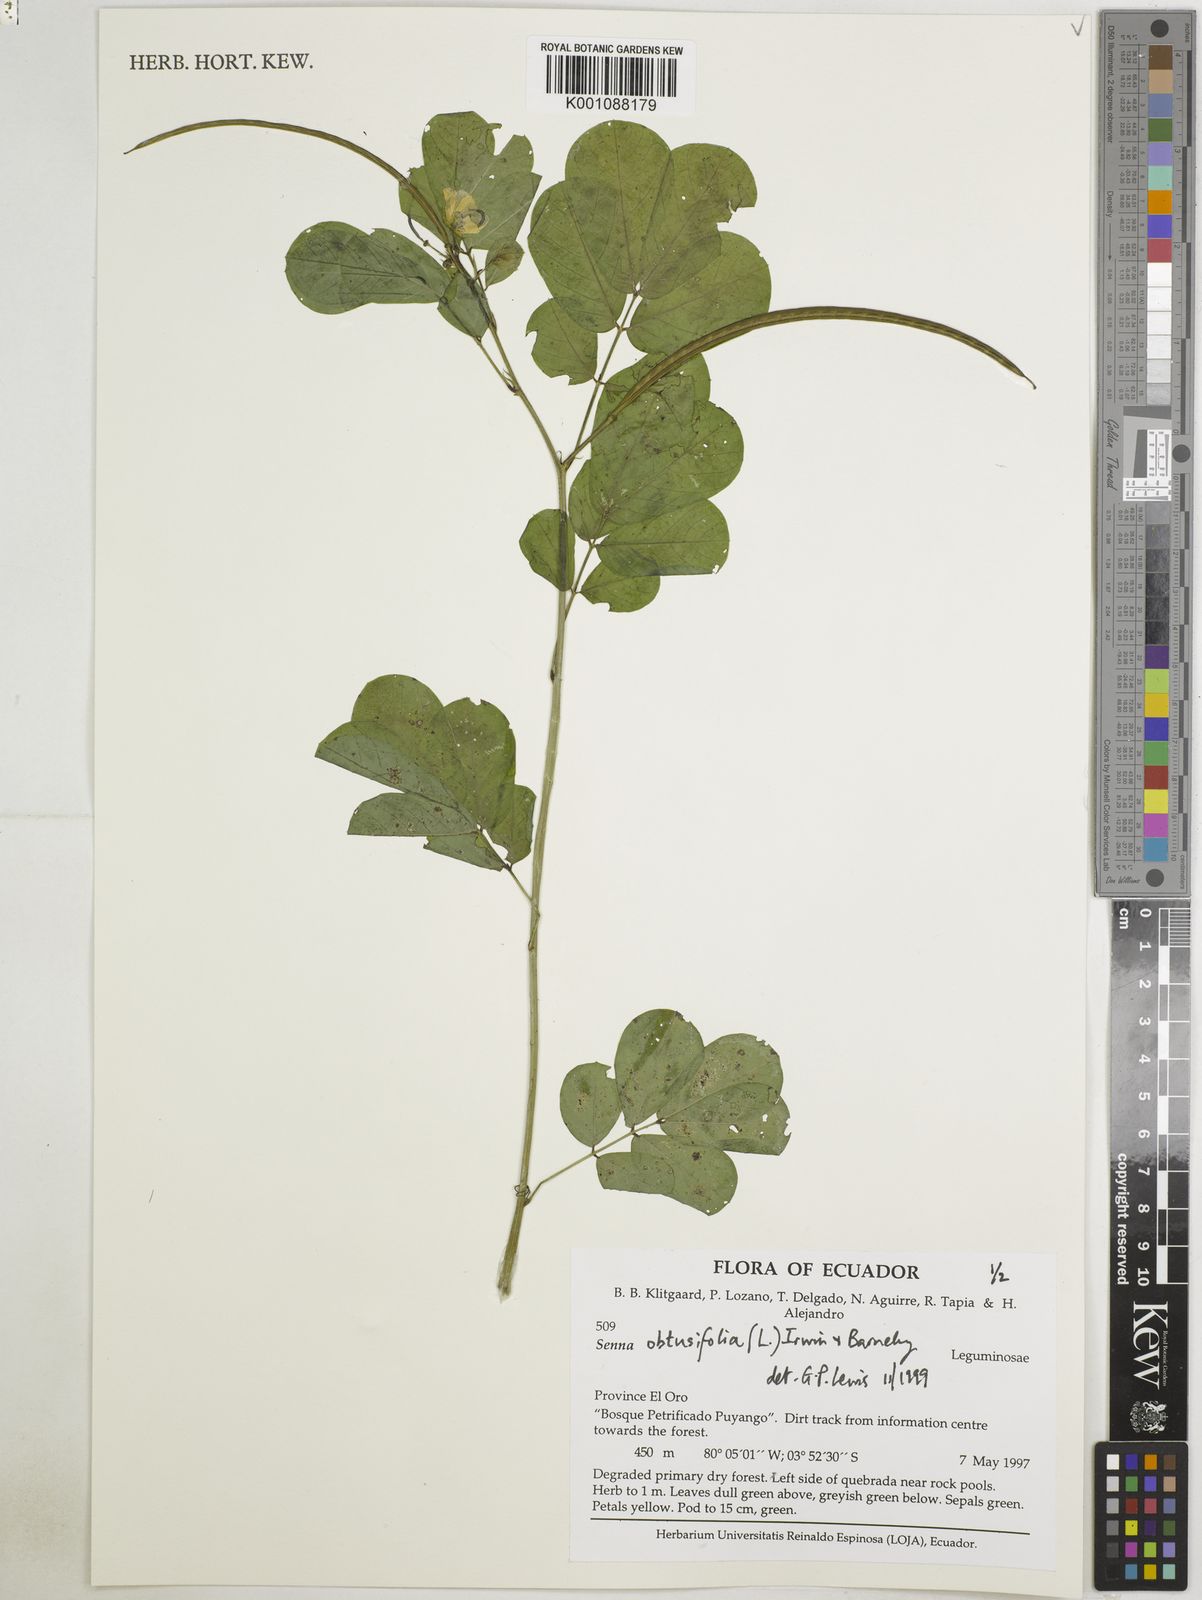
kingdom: Plantae
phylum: Tracheophyta
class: Magnoliopsida
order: Fabales
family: Fabaceae
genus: Senna
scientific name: Senna obtusifolia
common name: Java-bean
